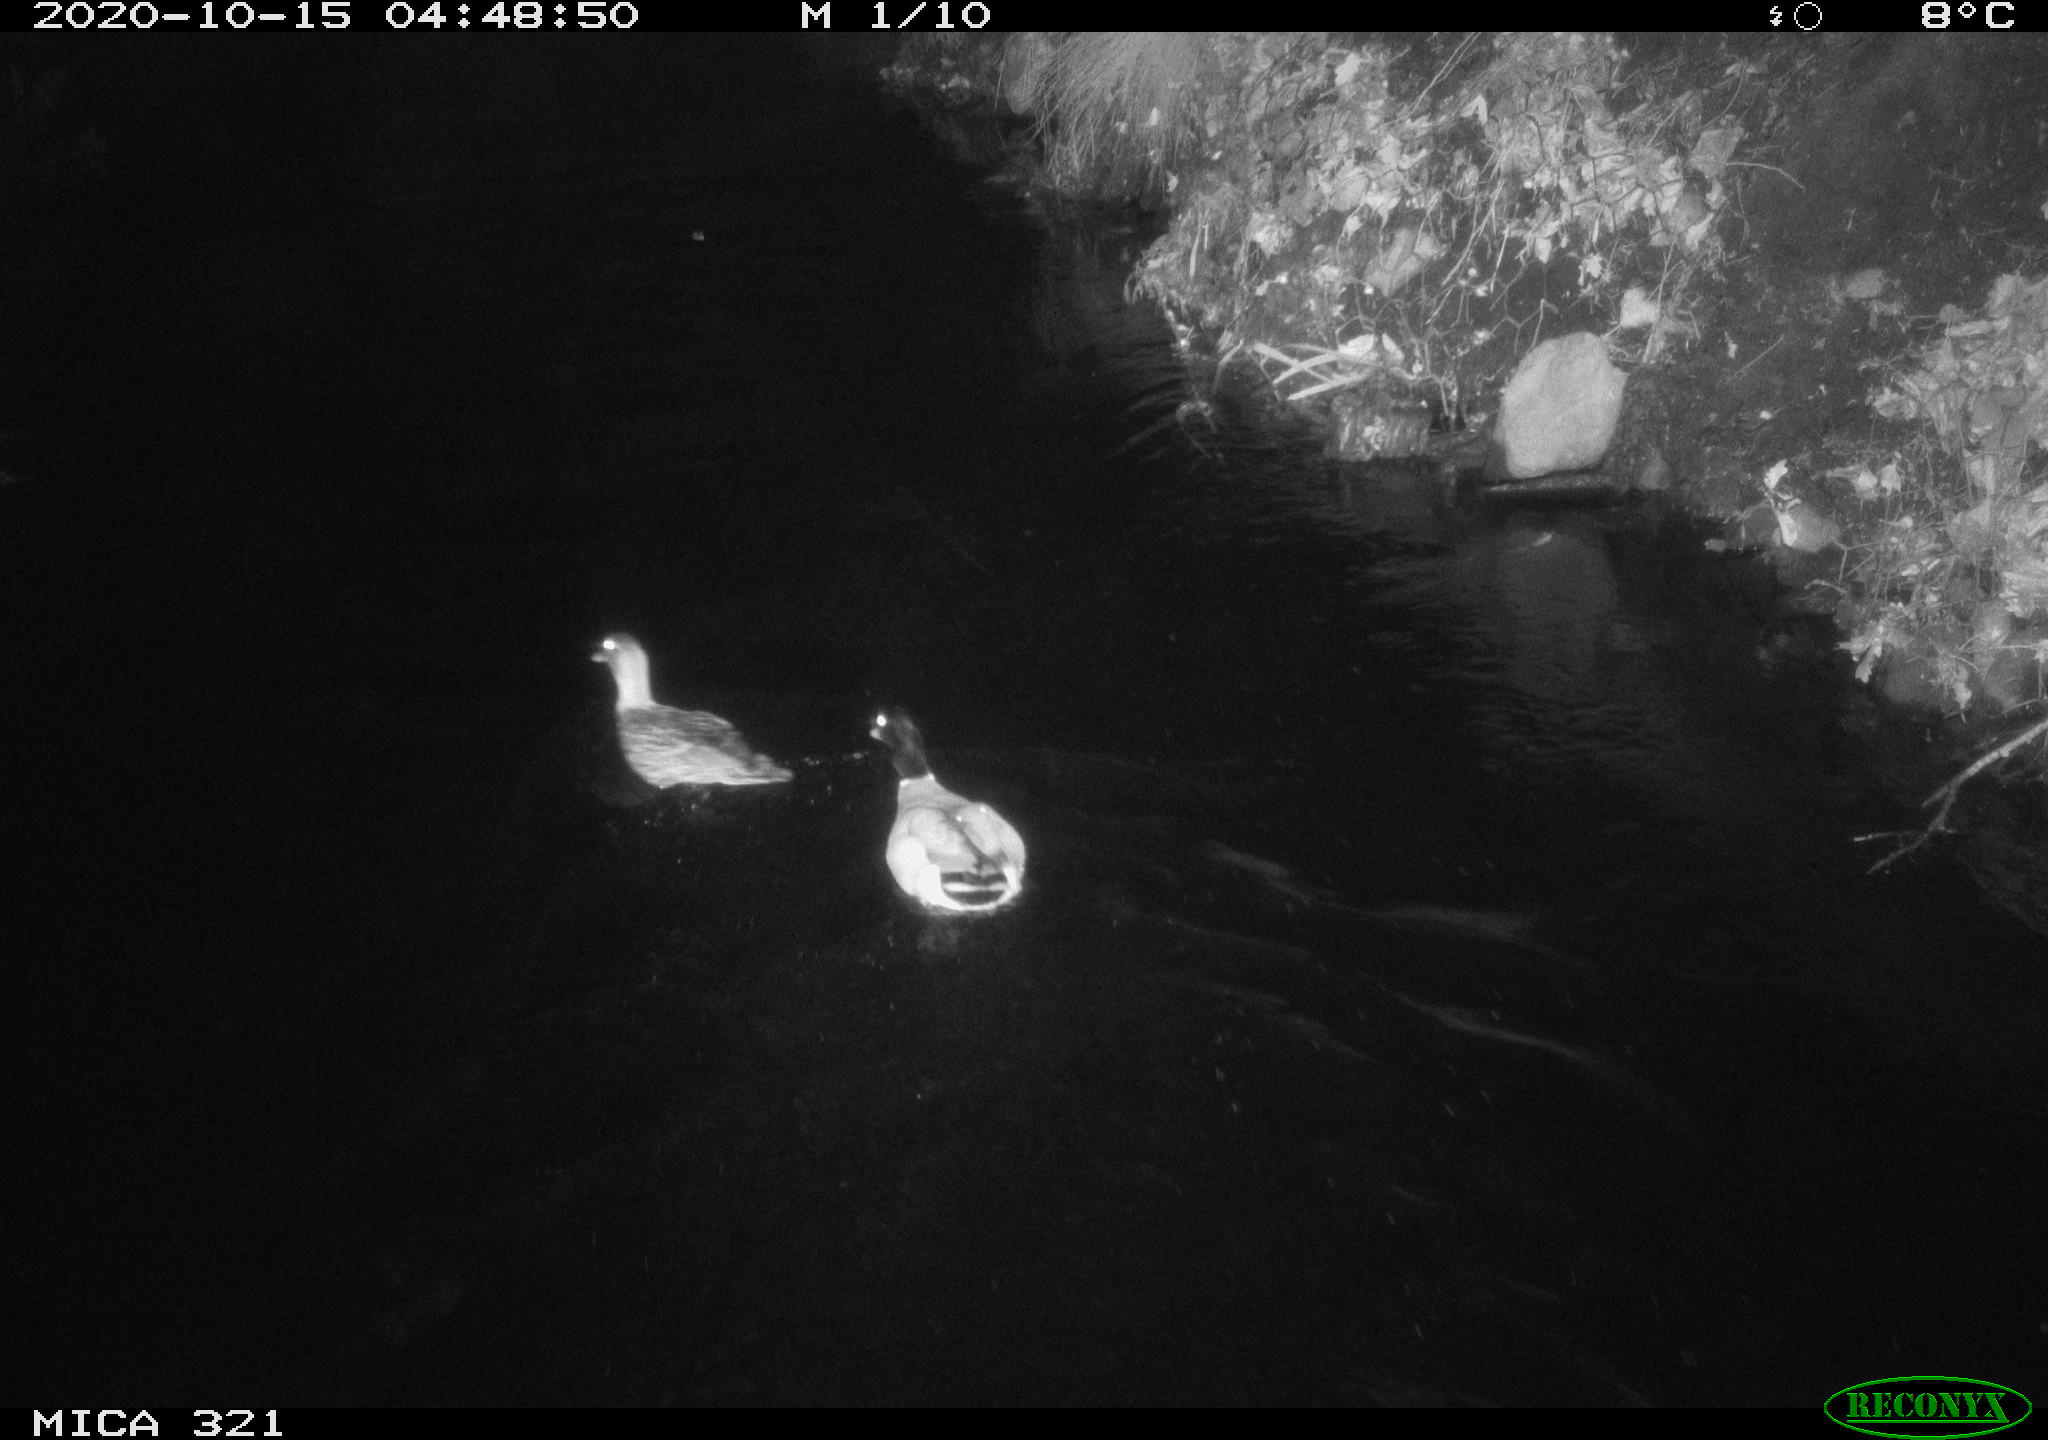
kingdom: Animalia
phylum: Chordata
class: Aves
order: Anseriformes
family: Anatidae
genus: Anas
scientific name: Anas platyrhynchos
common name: Mallard
